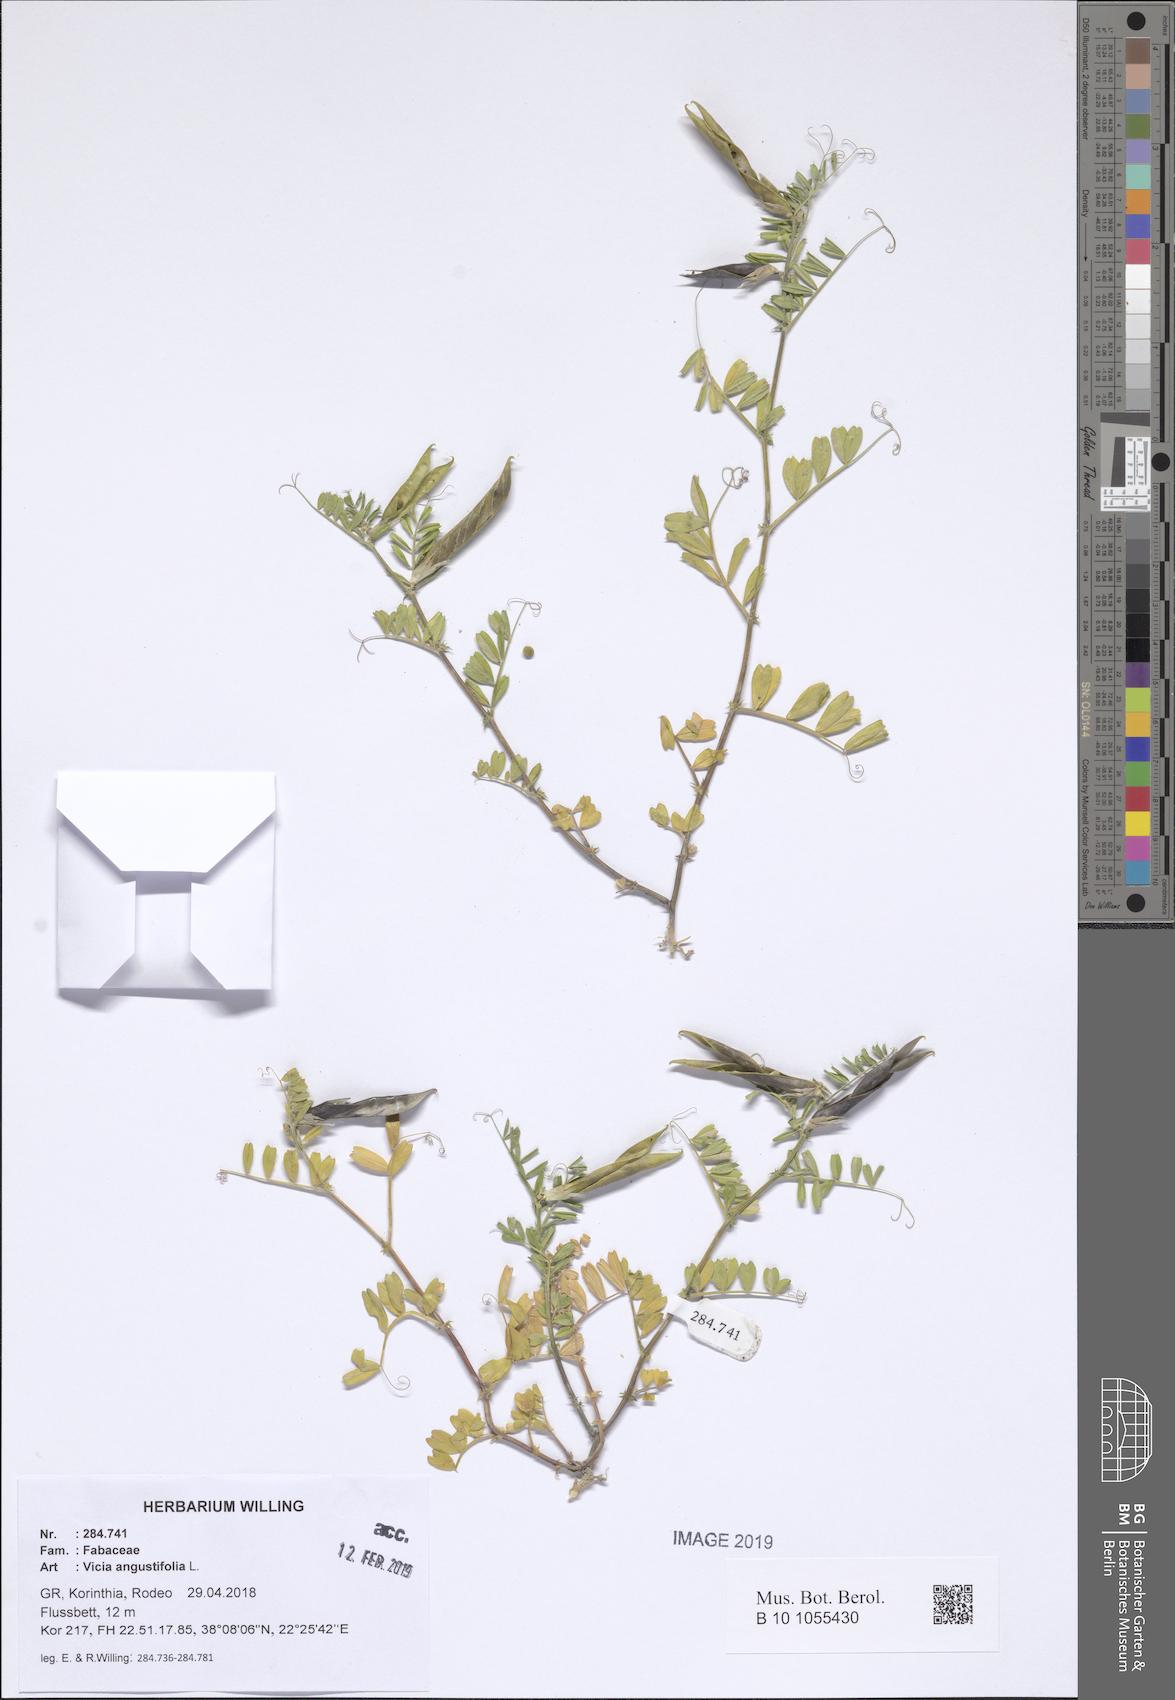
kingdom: Plantae
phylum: Tracheophyta
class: Magnoliopsida
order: Fabales
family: Fabaceae
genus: Vicia
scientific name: Vicia sativa
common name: Garden vetch
